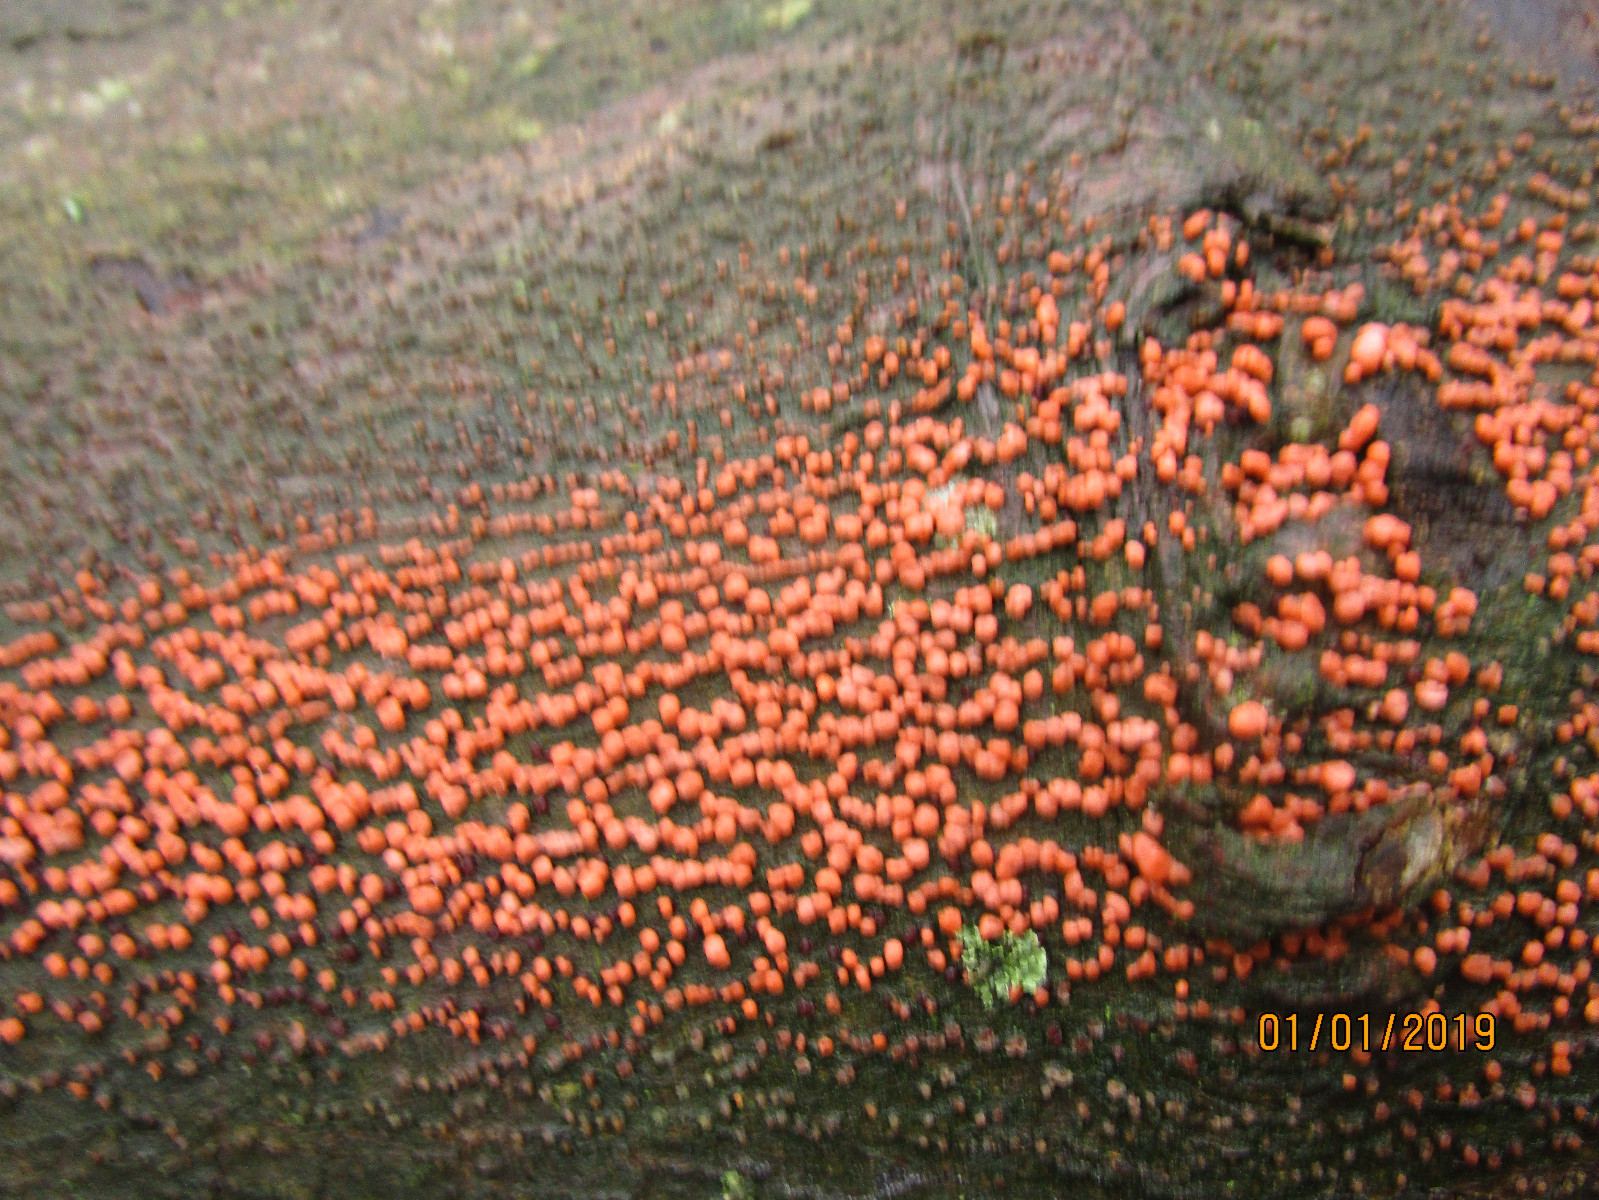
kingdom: Fungi
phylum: Ascomycota
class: Sordariomycetes
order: Hypocreales
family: Nectriaceae
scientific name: Nectriaceae
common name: cinnobersvampfamilien
